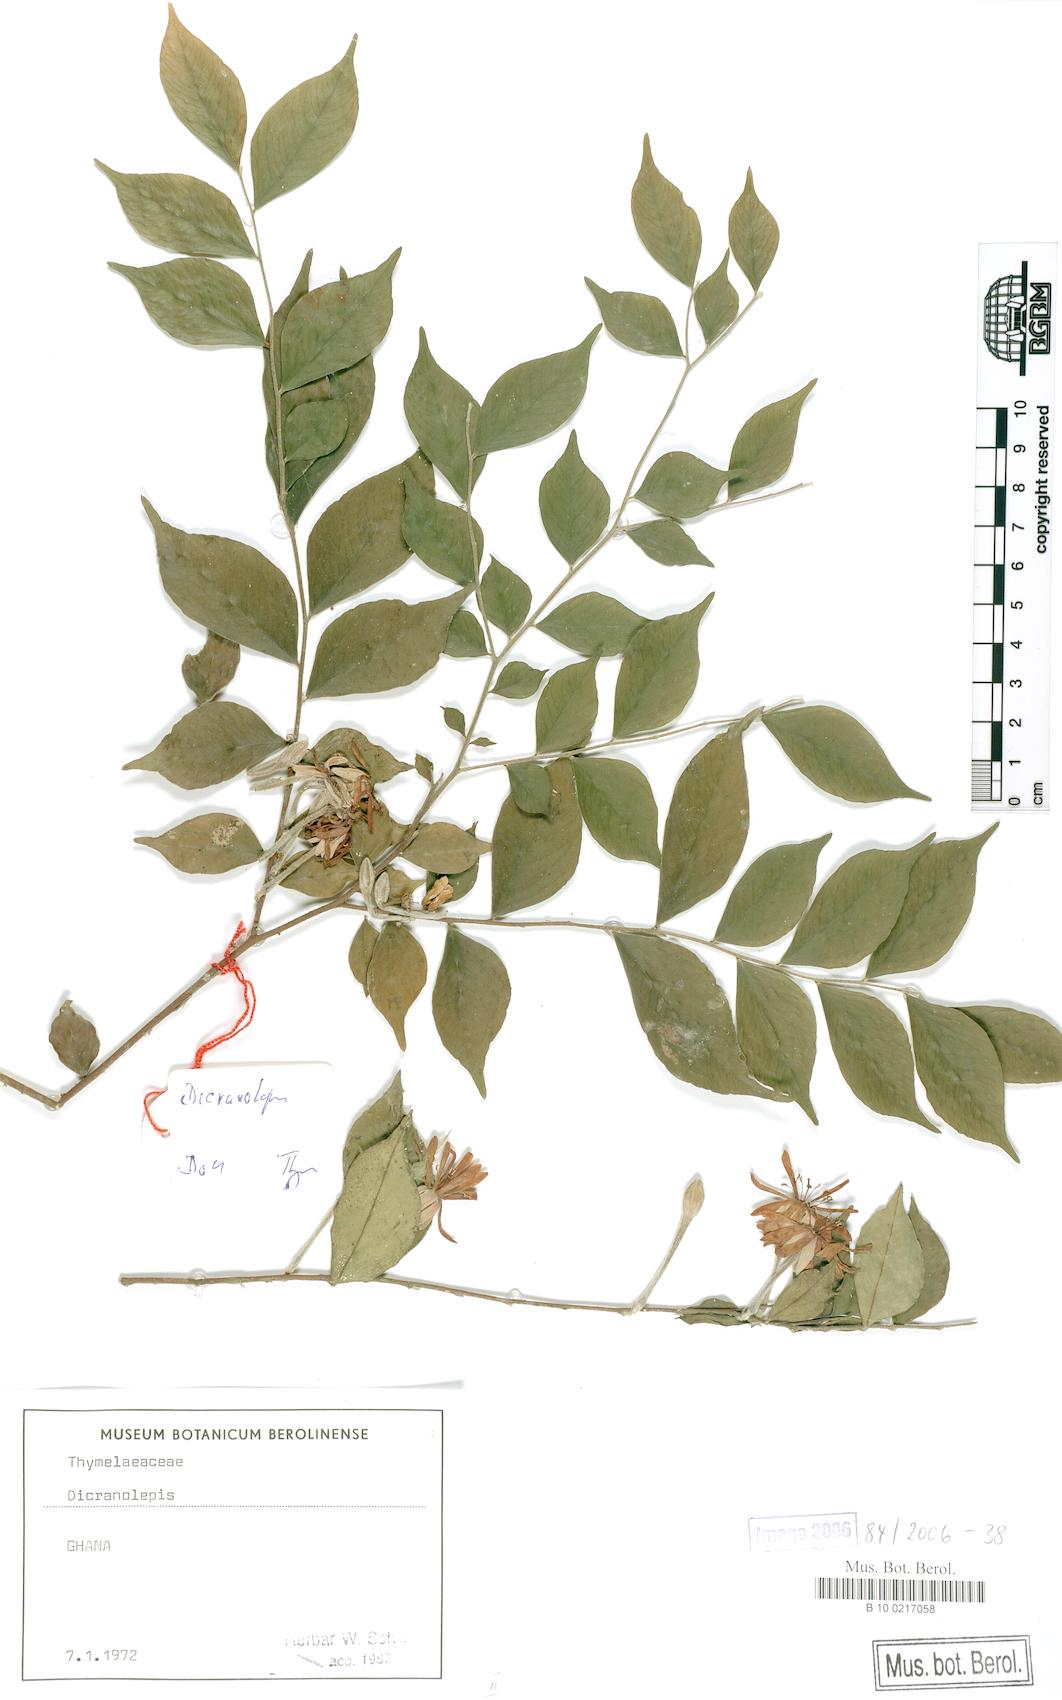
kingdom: Plantae
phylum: Tracheophyta
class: Magnoliopsida
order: Malvales
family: Thymelaeaceae
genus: Dicranolepis
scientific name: Dicranolepis grandiflora
